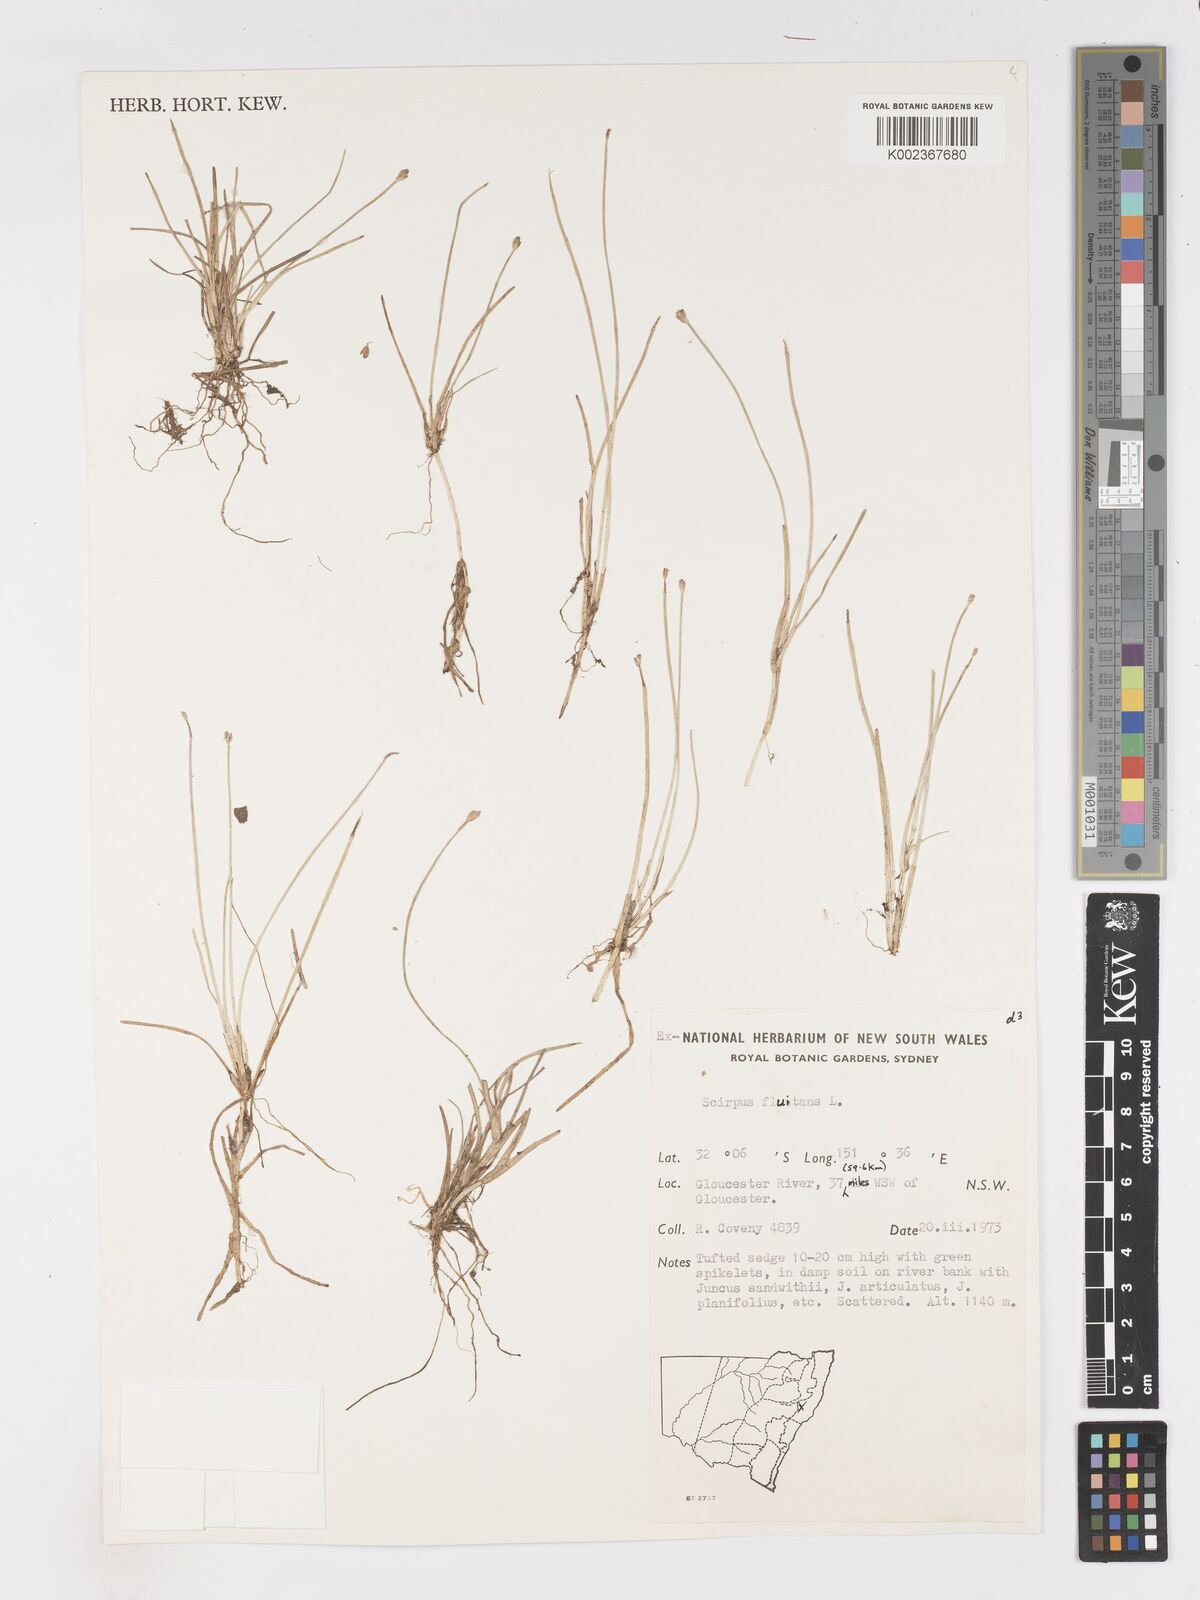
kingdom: Plantae
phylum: Tracheophyta
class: Liliopsida
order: Poales
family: Cyperaceae
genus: Isolepis
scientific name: Isolepis fluitans
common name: Floating club-rush
